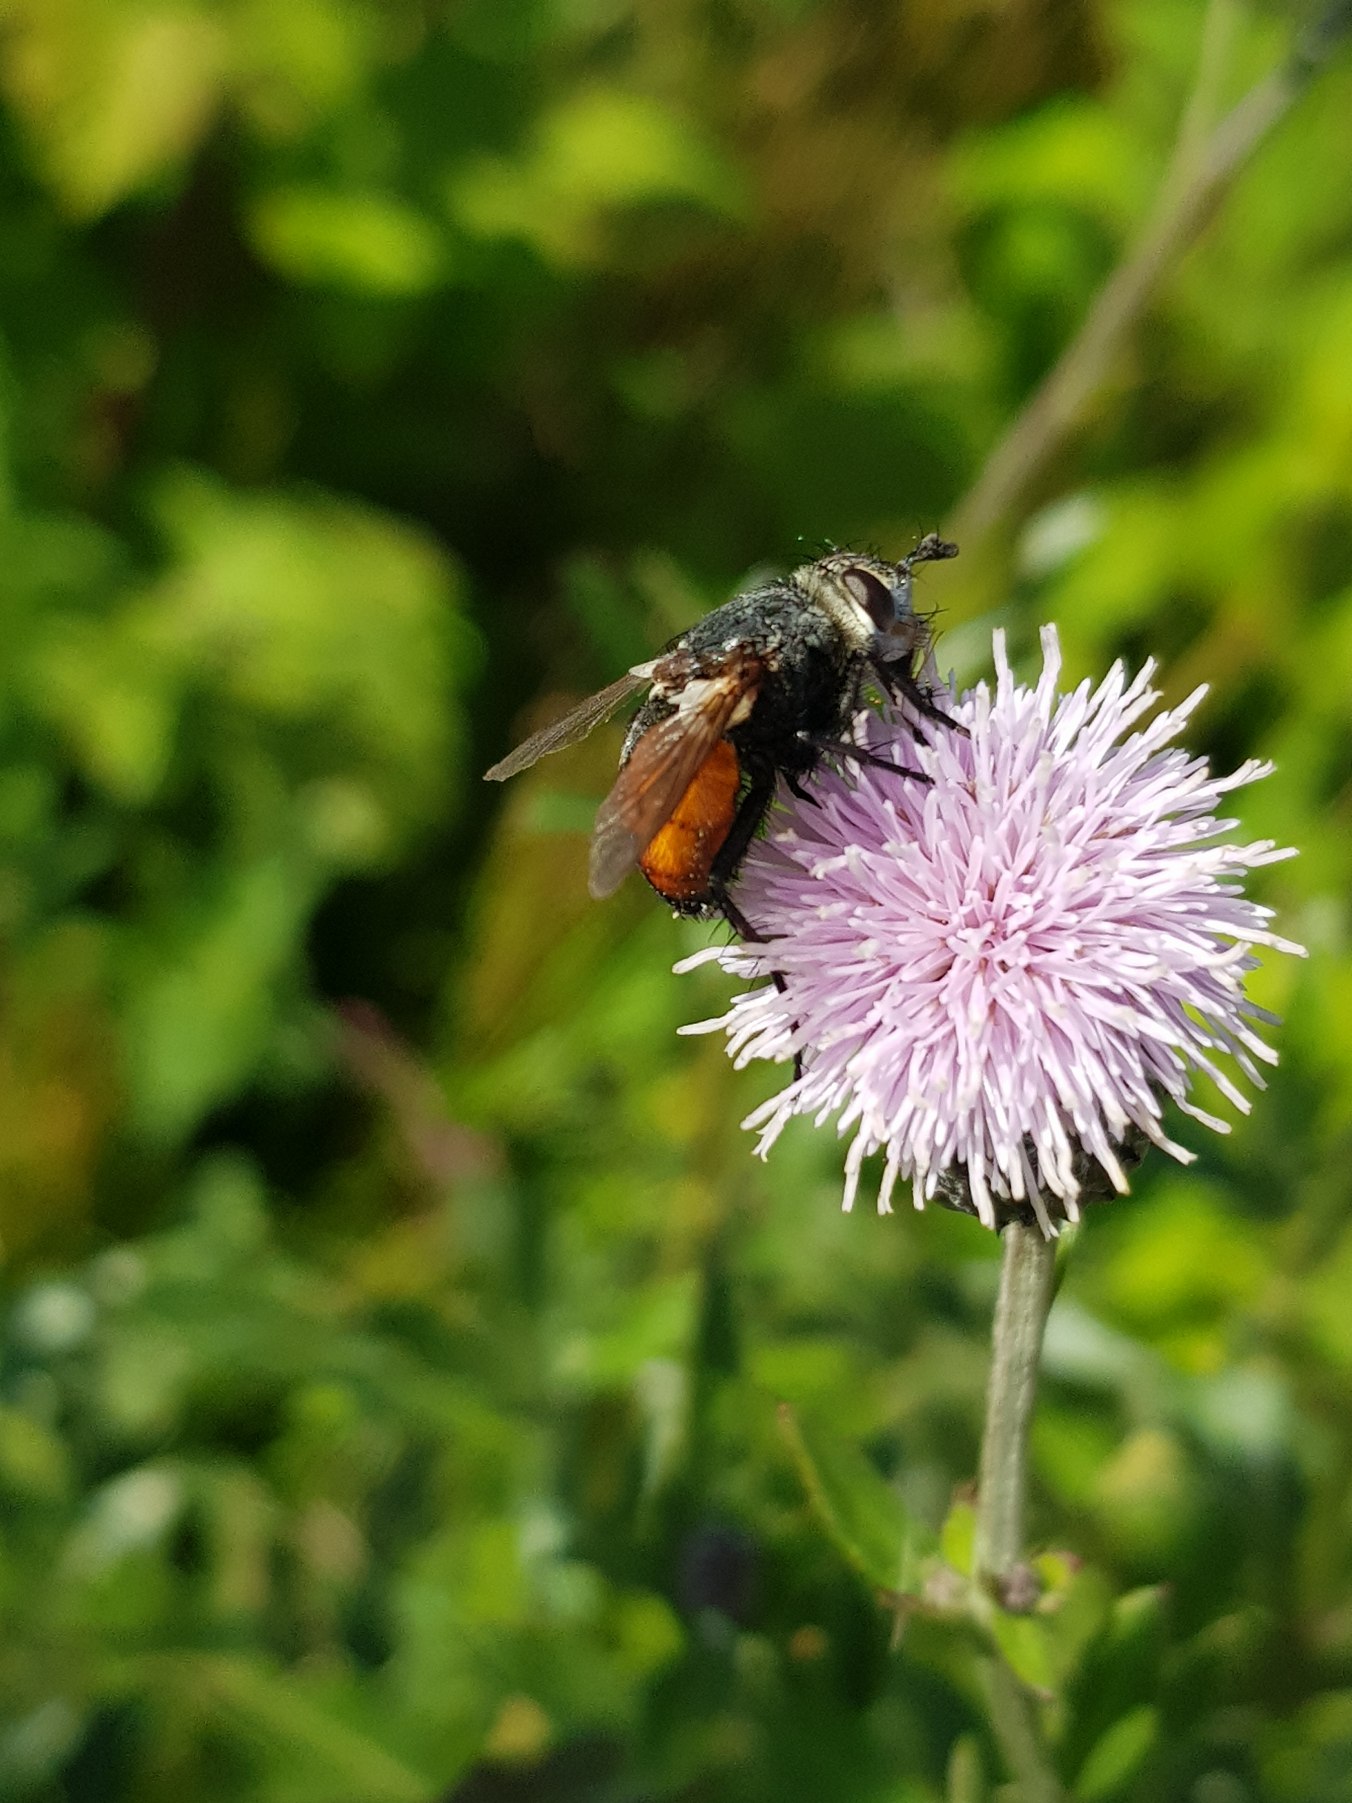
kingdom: Animalia
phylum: Arthropoda
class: Insecta
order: Diptera
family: Tachinidae
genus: Peleteria
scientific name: Peleteria rubescens
